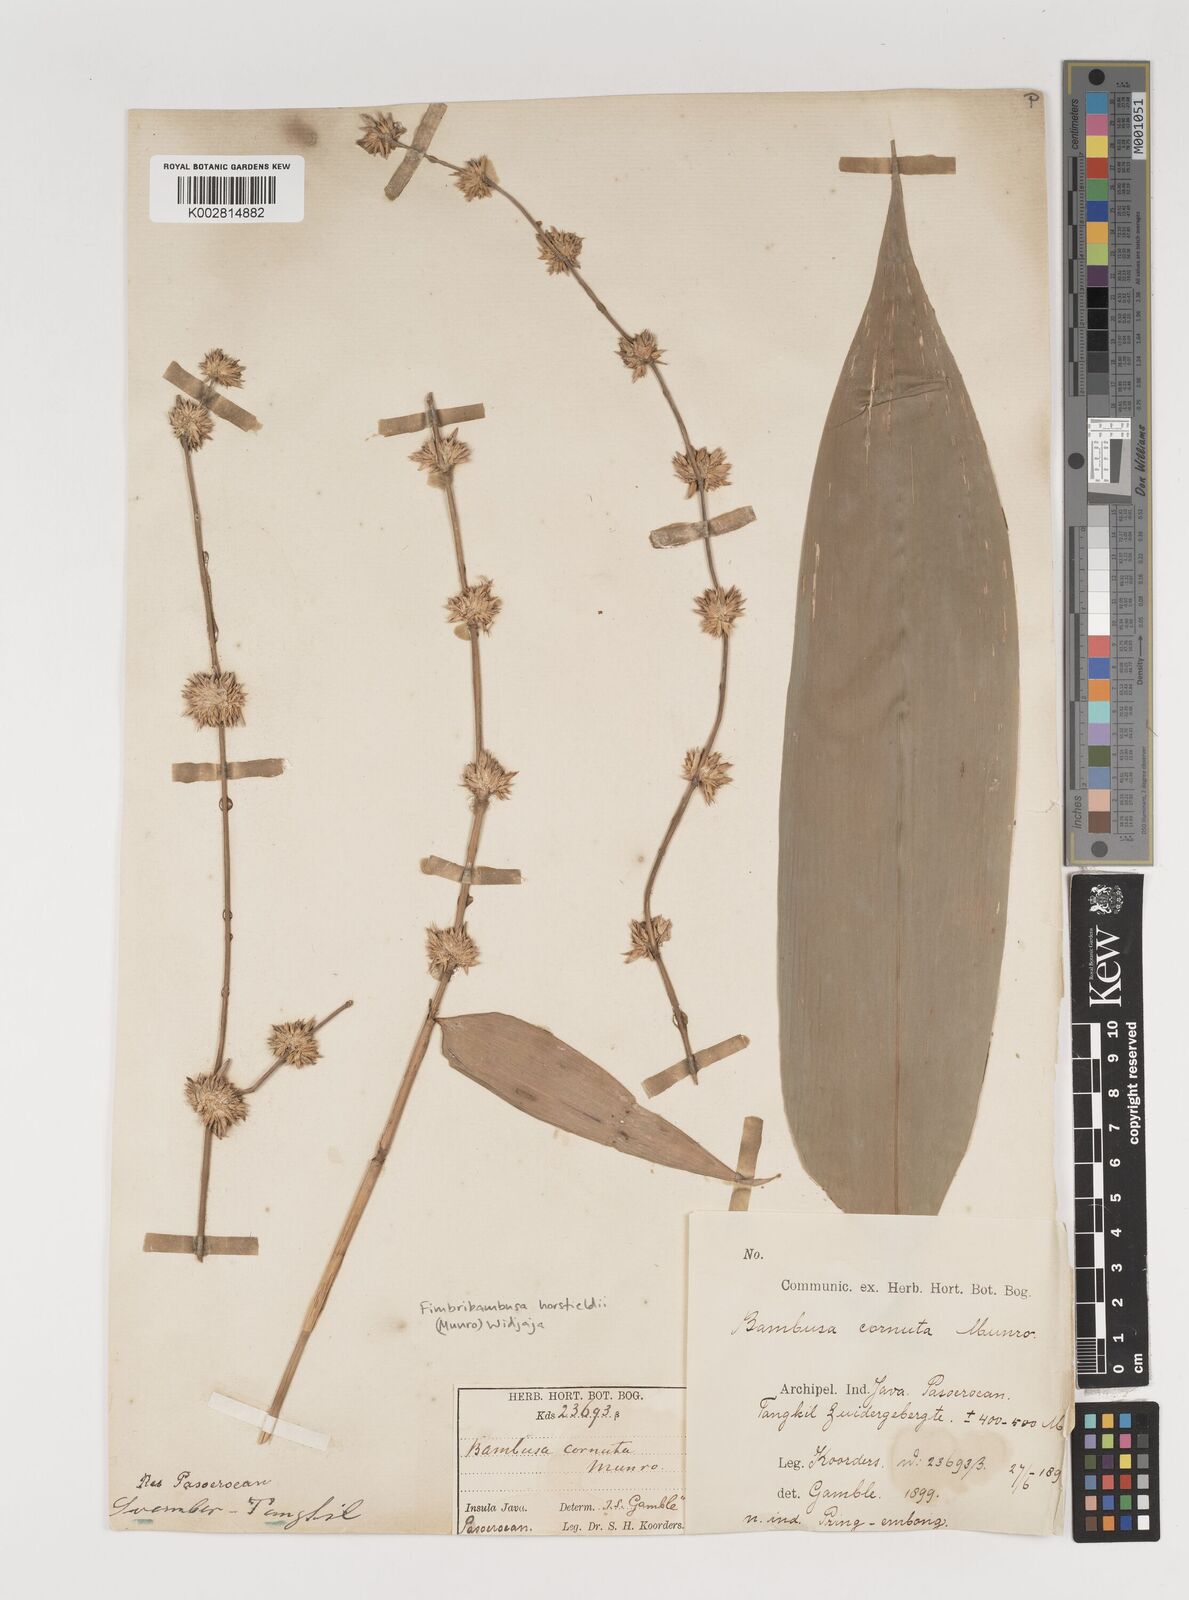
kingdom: Plantae
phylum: Tracheophyta
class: Liliopsida
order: Poales
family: Poaceae
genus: Fimbribambusa
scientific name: Fimbribambusa horsfieldii
